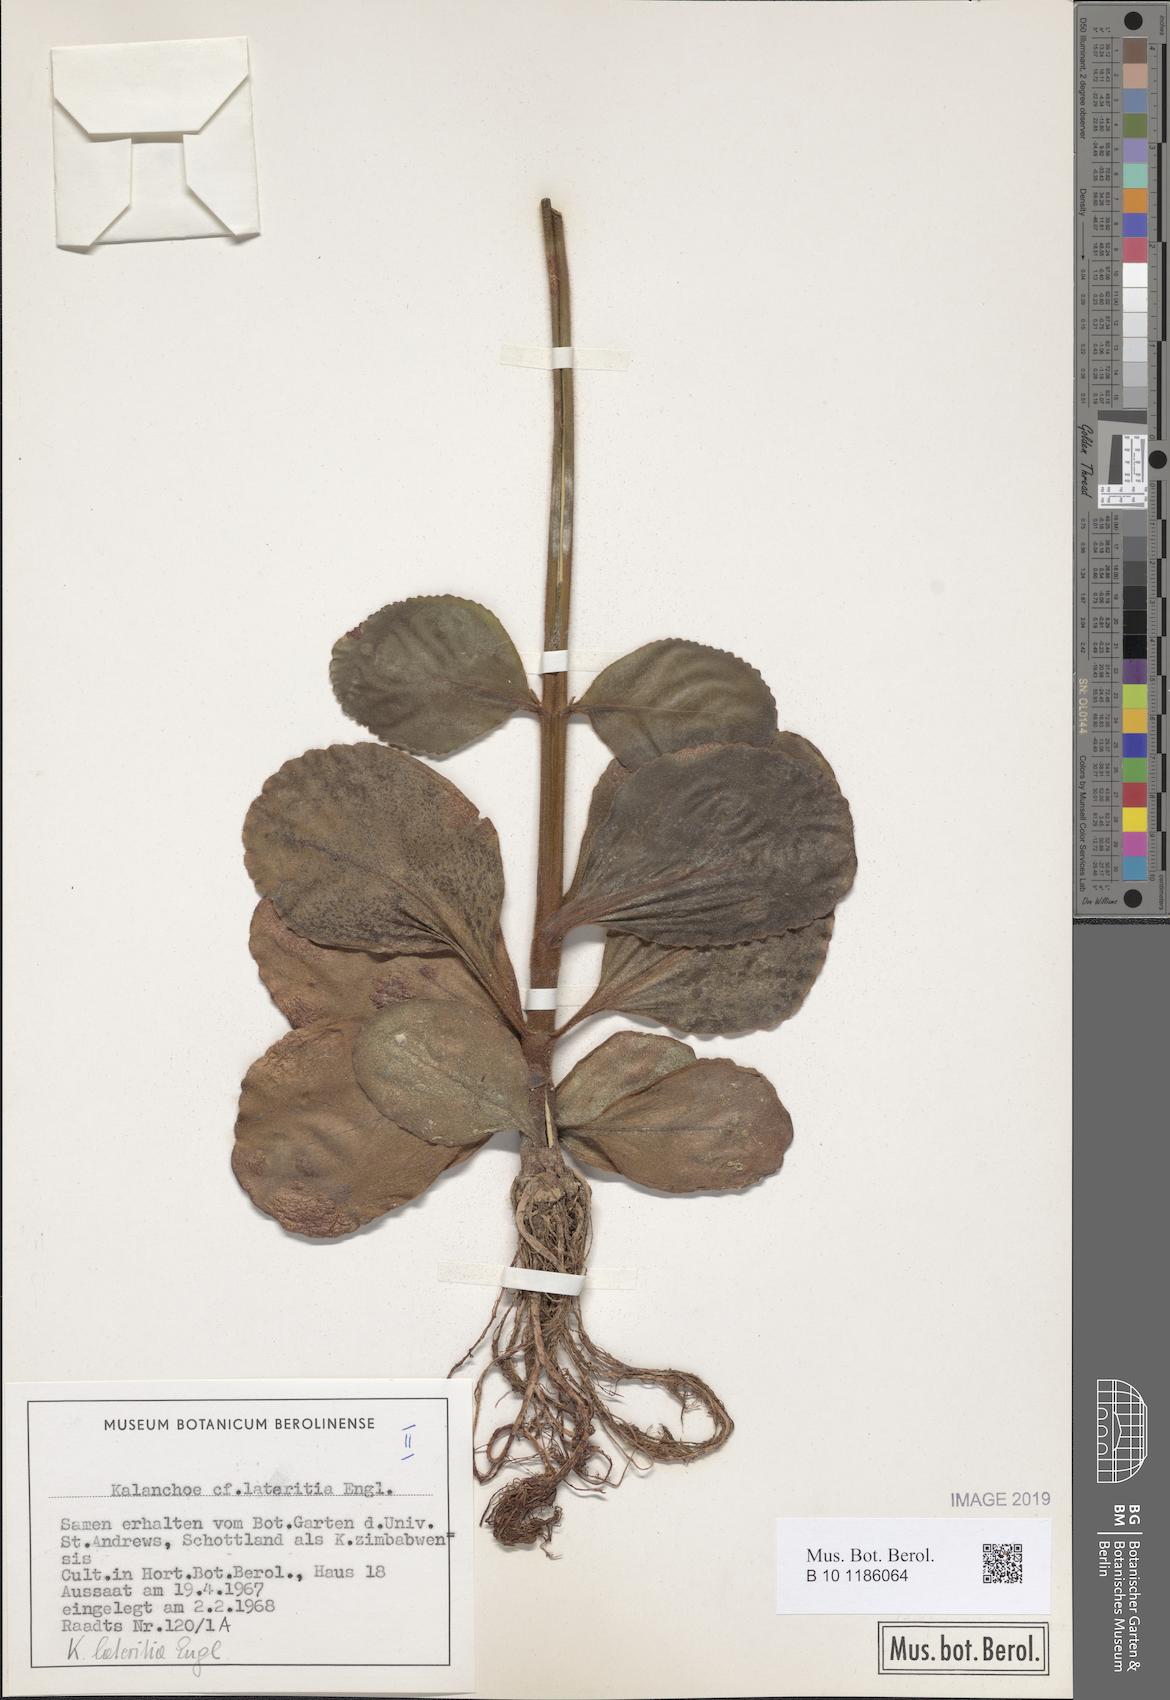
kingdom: Plantae
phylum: Tracheophyta
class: Magnoliopsida
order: Saxifragales
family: Crassulaceae
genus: Kalanchoe
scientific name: Kalanchoe lateritia
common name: Kalanchoe
